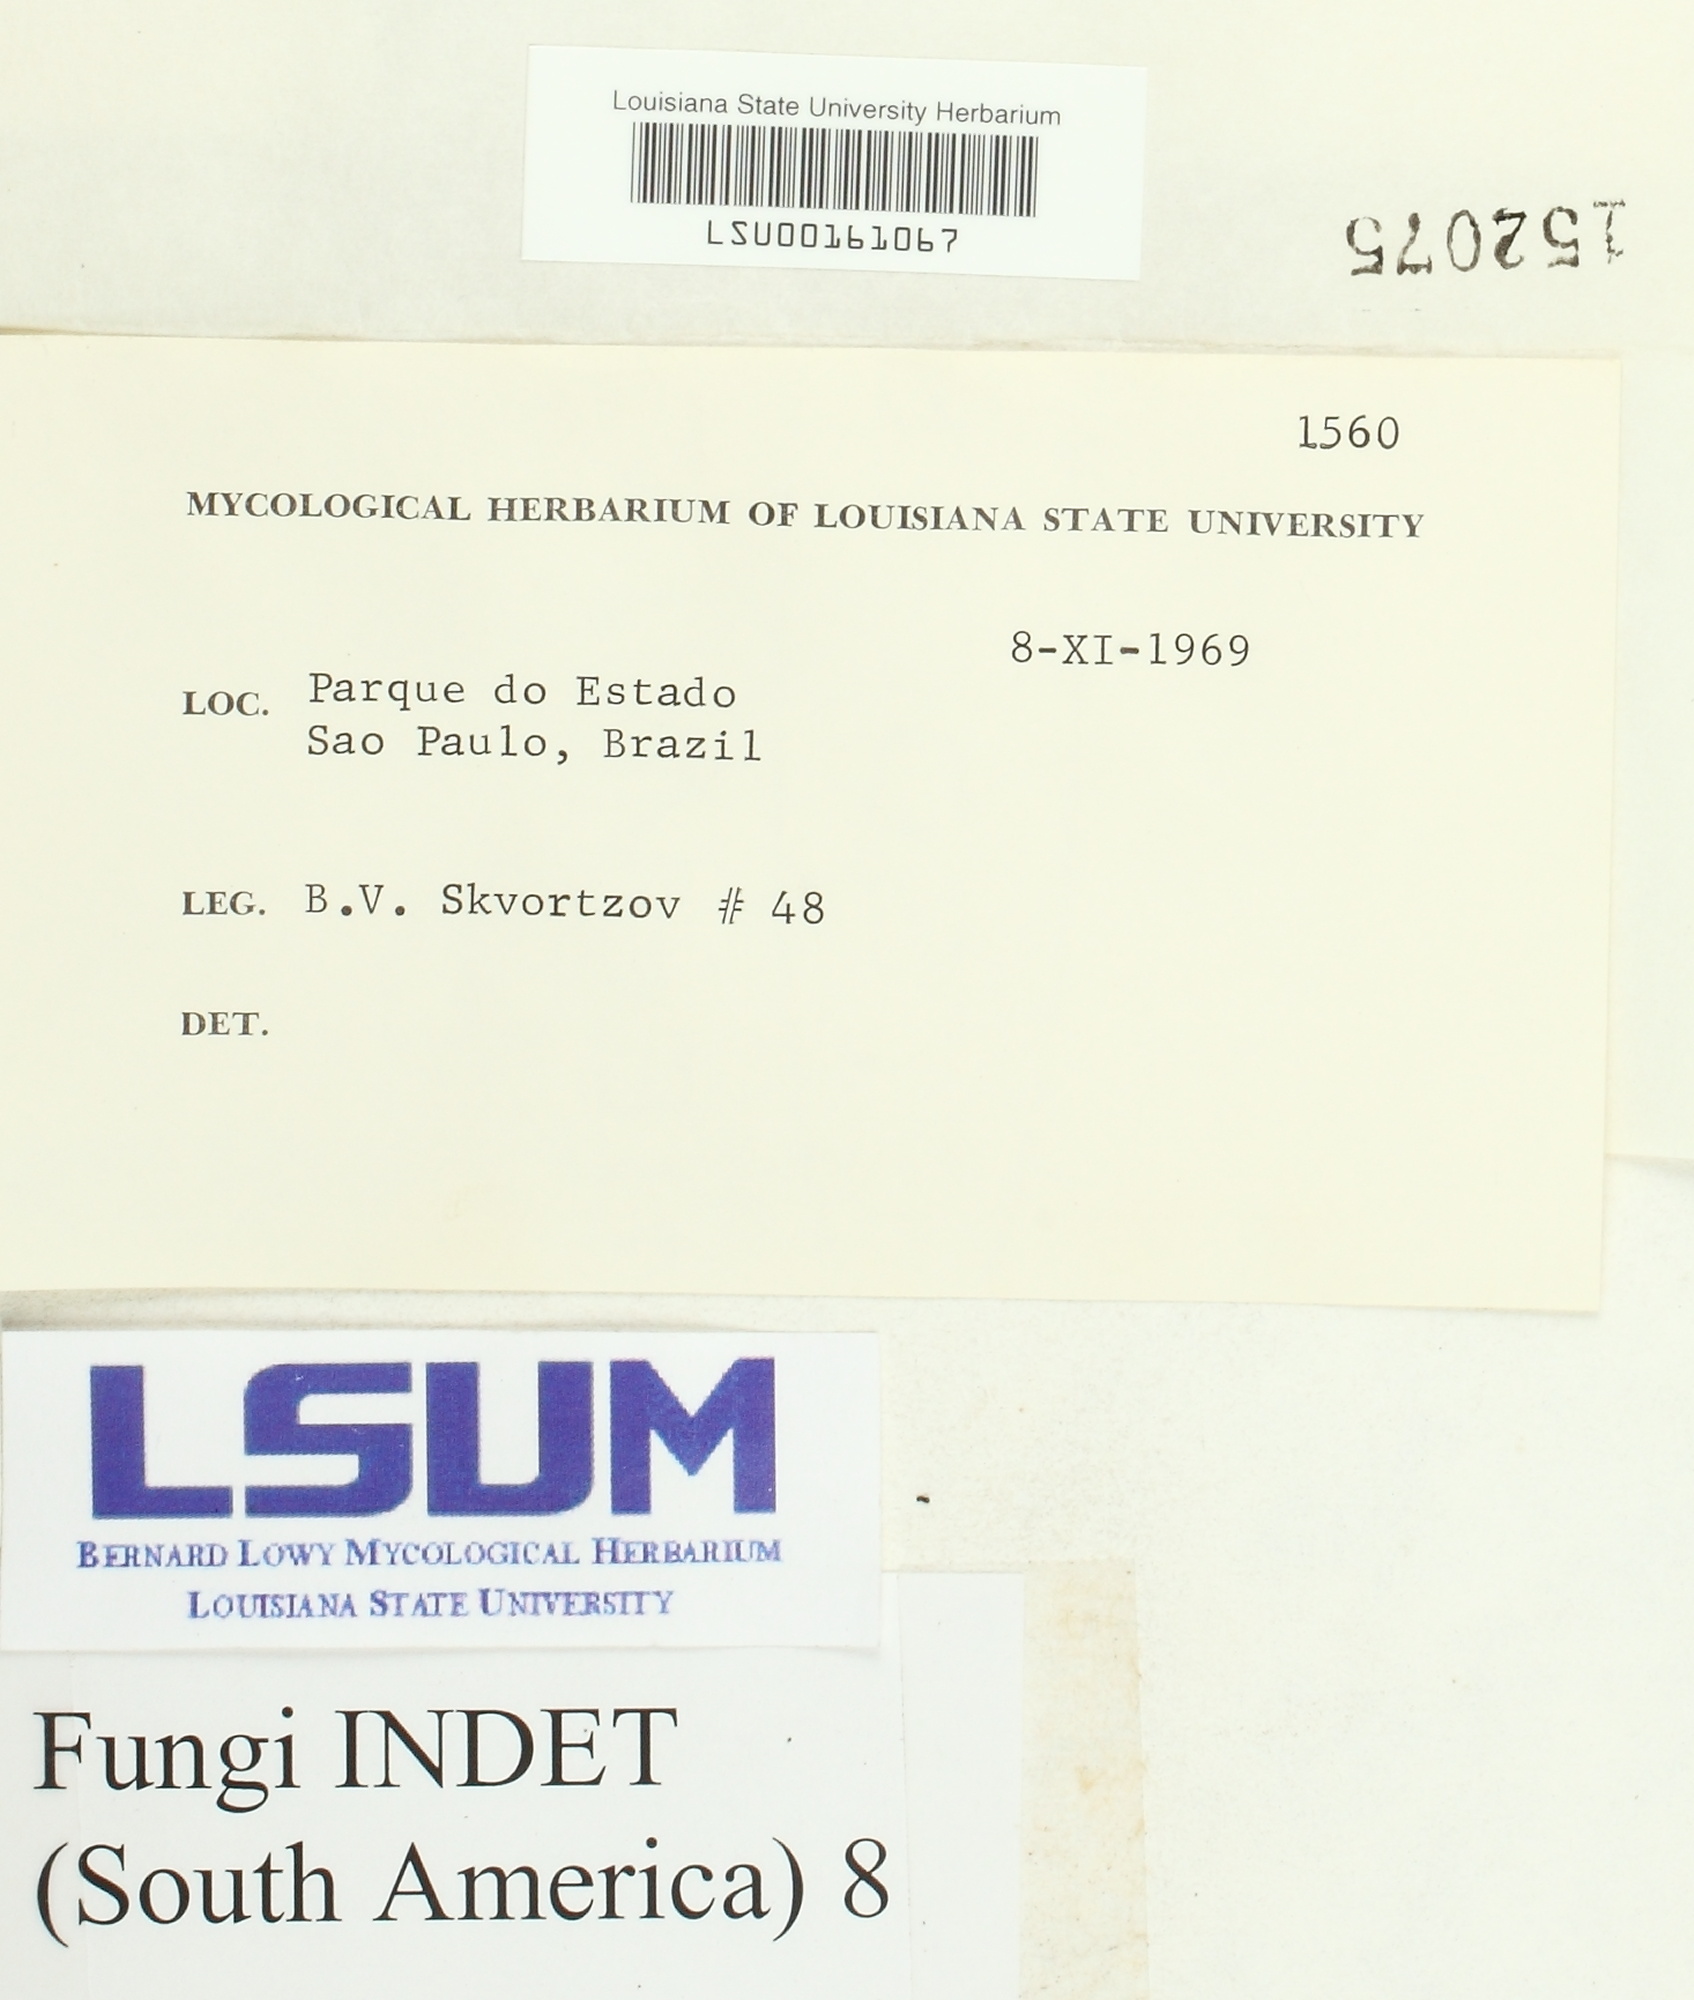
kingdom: Fungi
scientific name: Fungi
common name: Fungi
